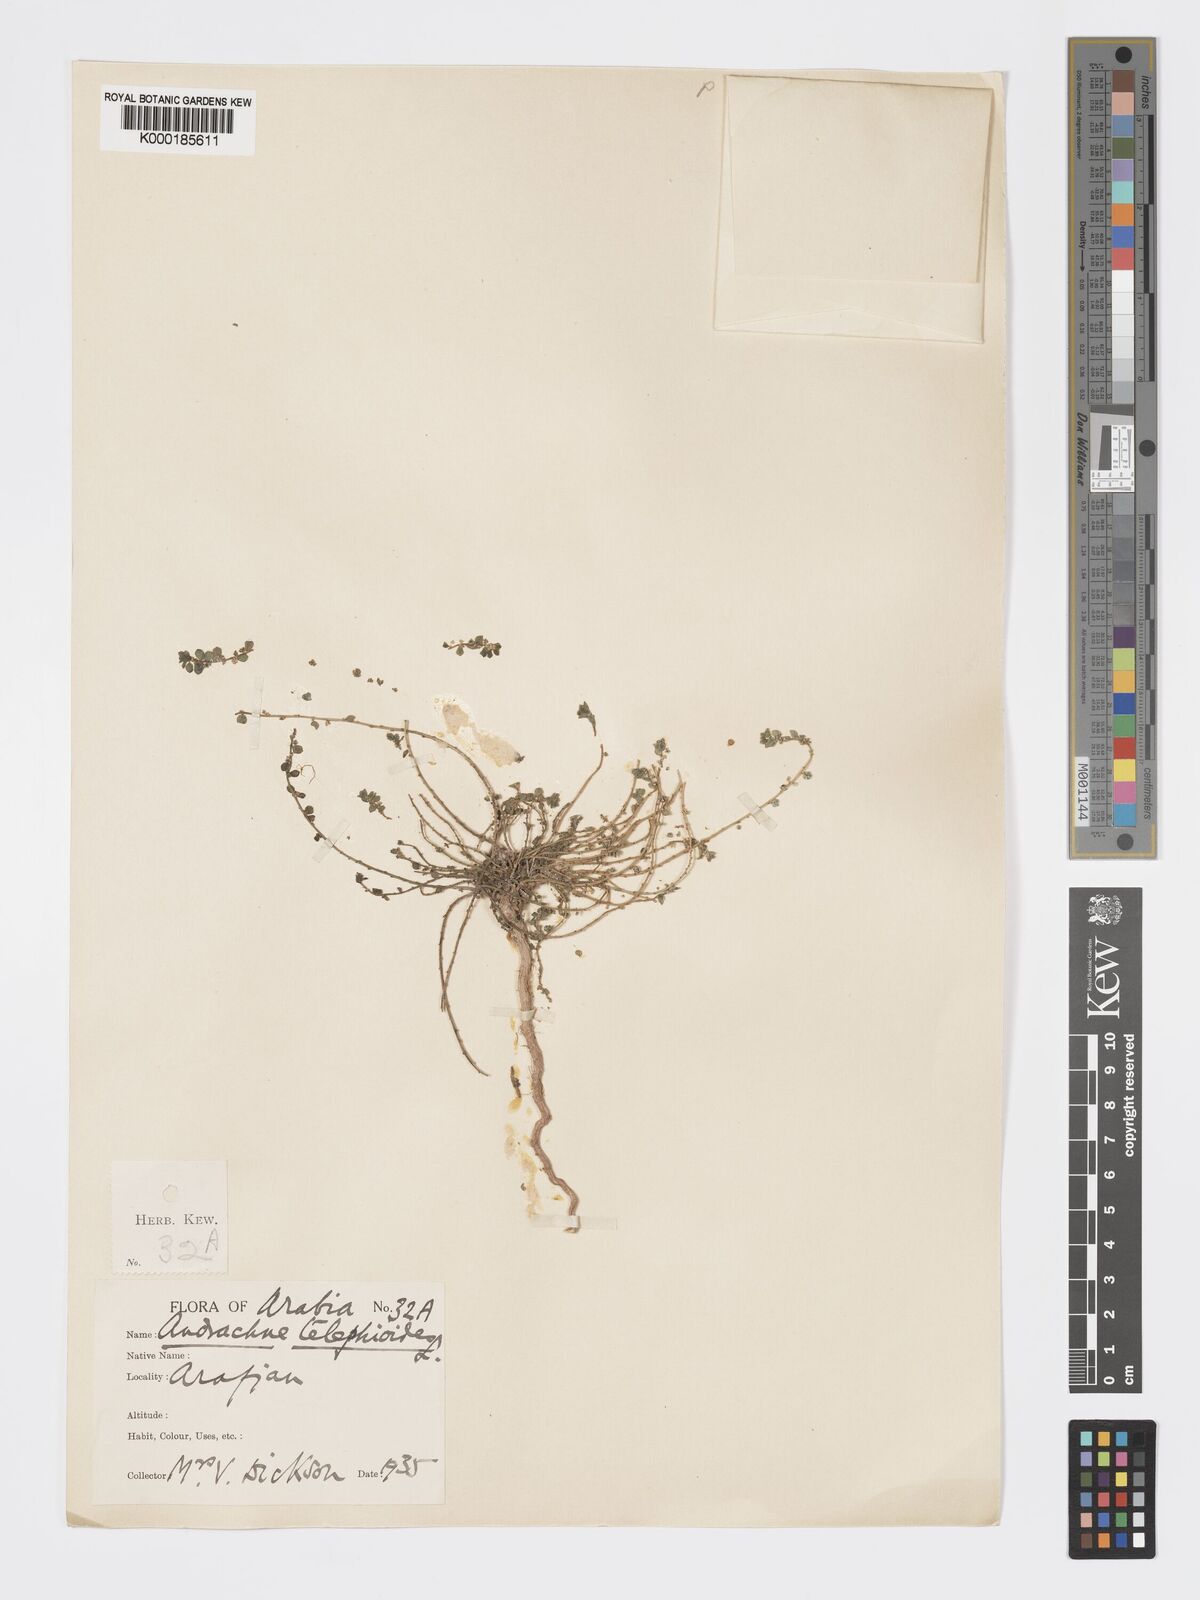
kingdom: Plantae
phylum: Tracheophyta
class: Magnoliopsida
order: Malpighiales
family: Phyllanthaceae
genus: Andrachne
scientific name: Andrachne telephioides
